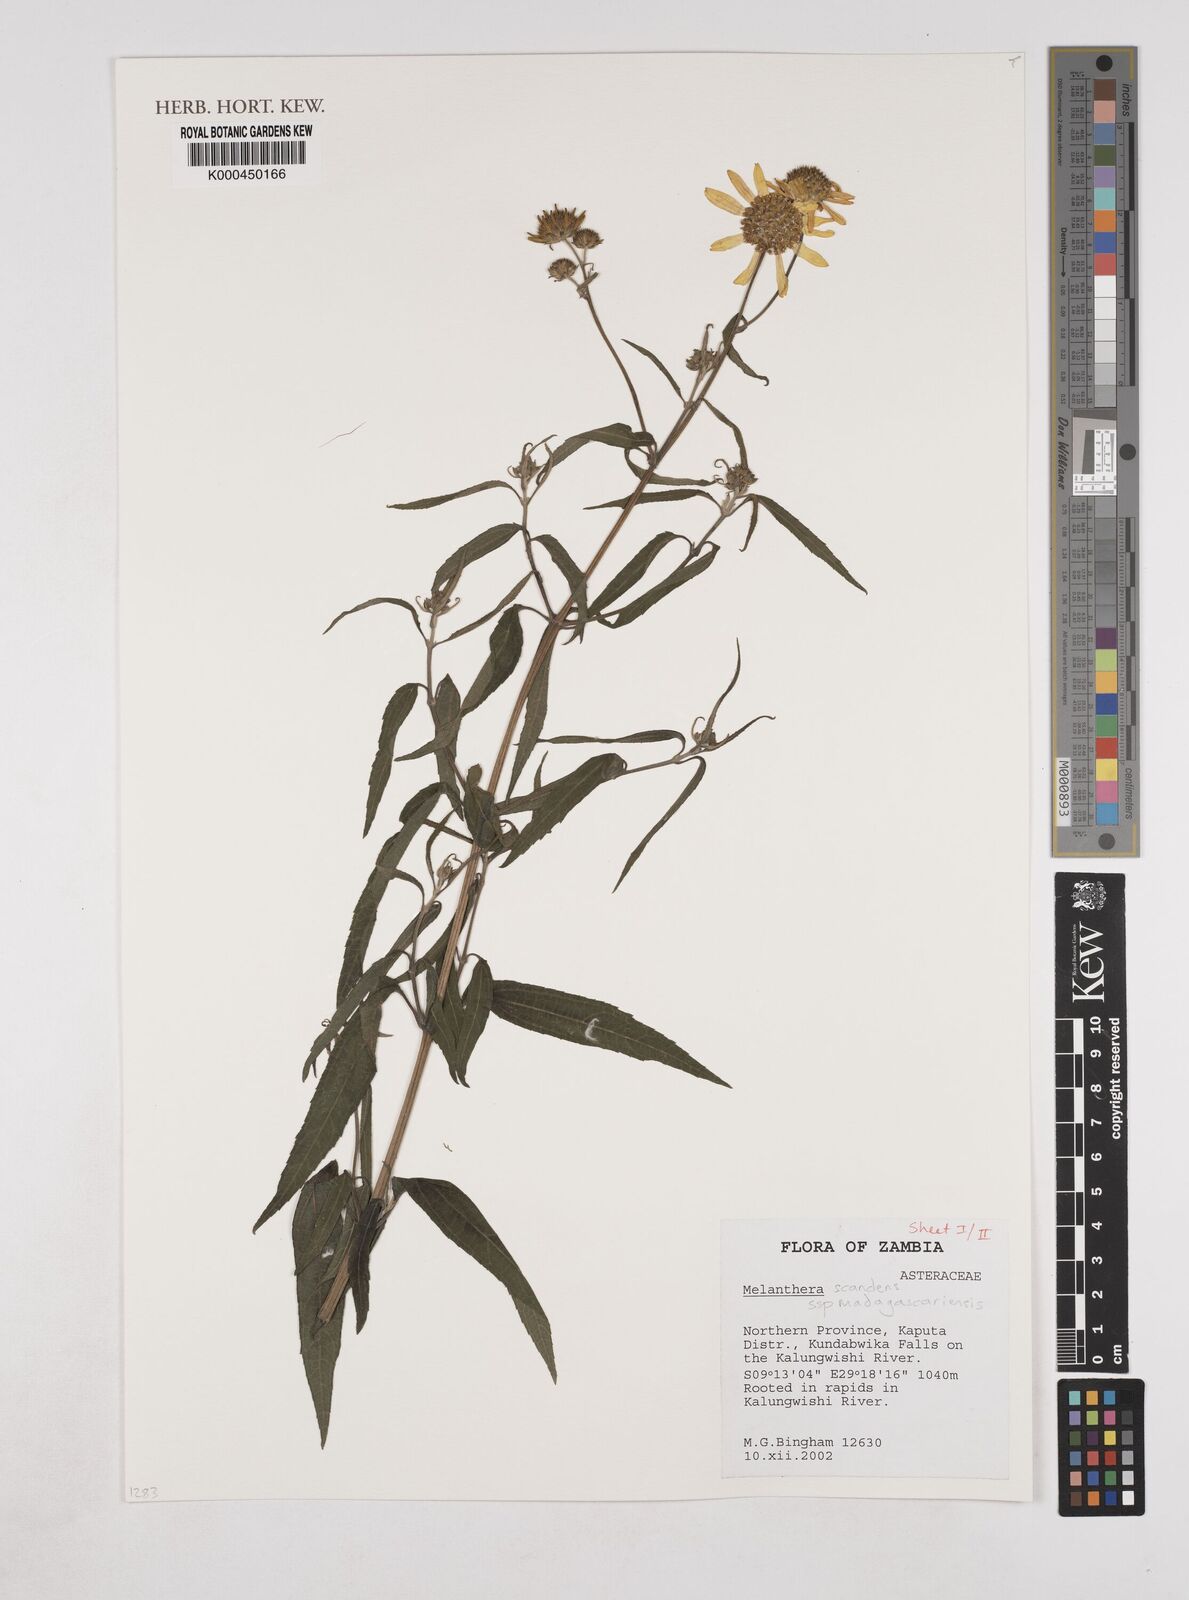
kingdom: Plantae
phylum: Tracheophyta
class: Magnoliopsida
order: Asterales
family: Asteraceae
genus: Melanthera
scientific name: Melanthera
